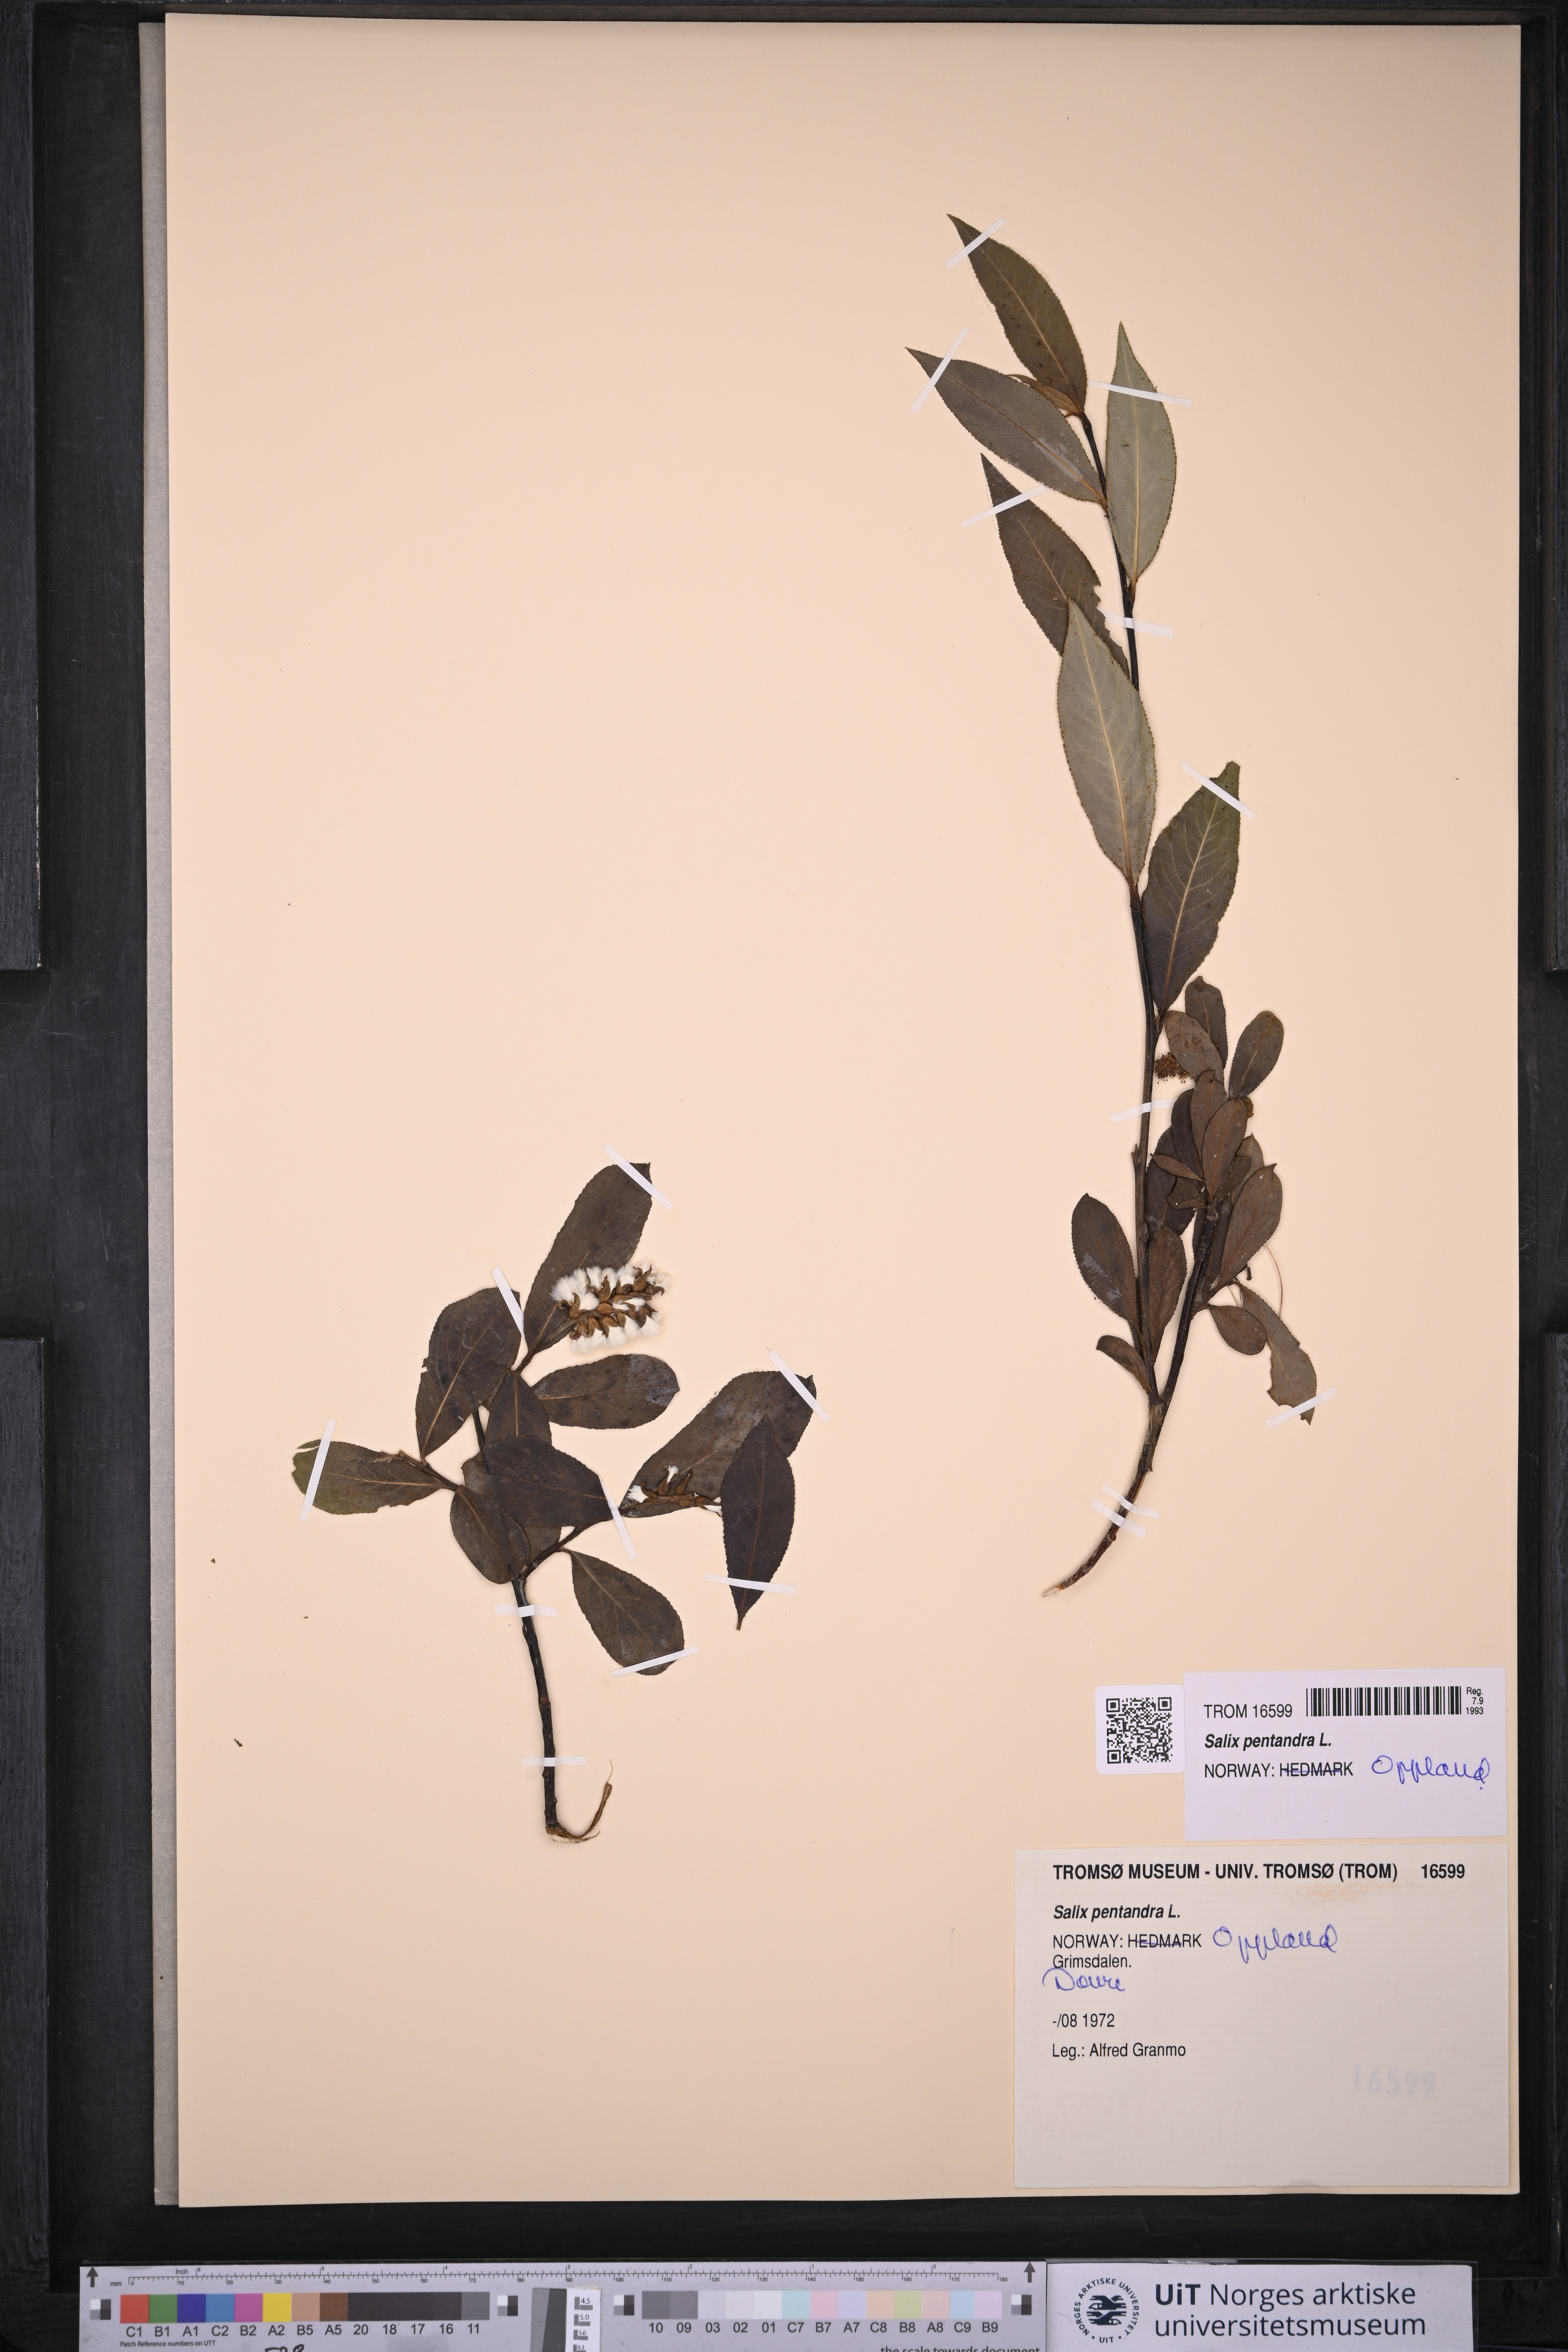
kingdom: Plantae
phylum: Tracheophyta
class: Magnoliopsida
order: Malpighiales
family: Salicaceae
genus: Salix
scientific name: Salix pentandra
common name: Bay willow
